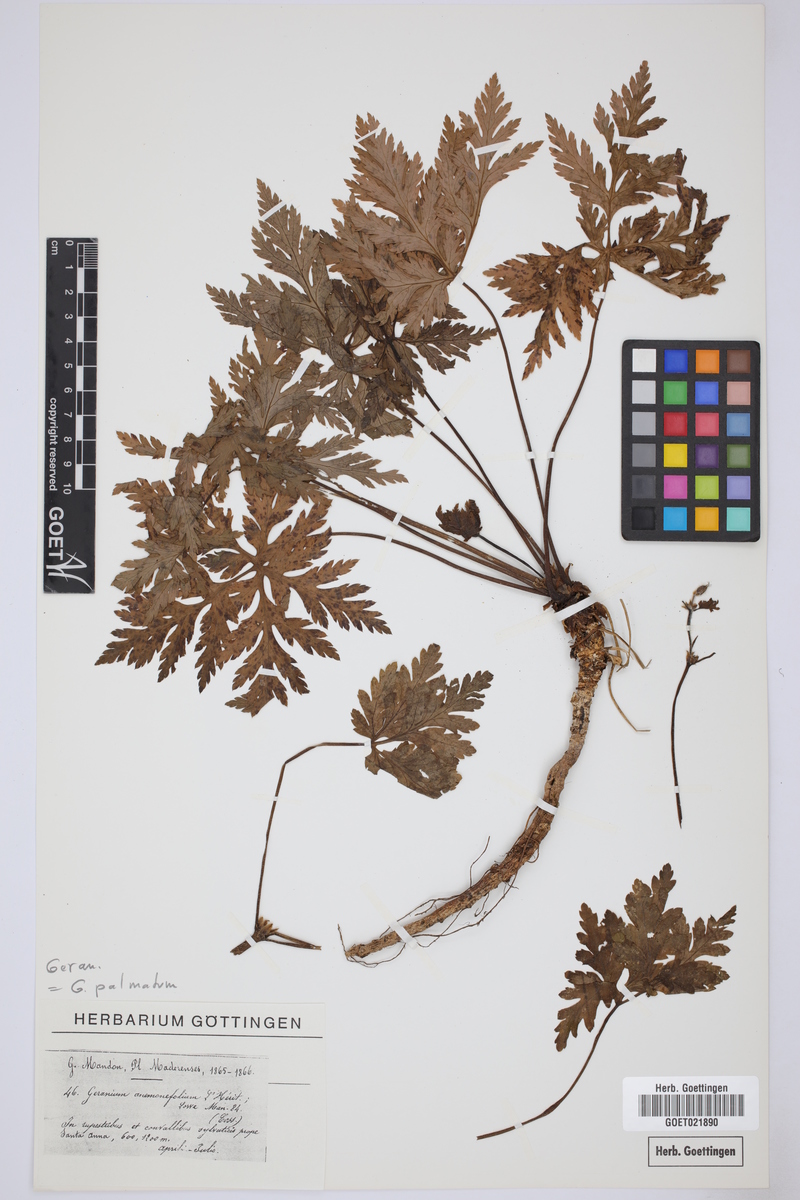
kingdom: Plantae
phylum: Tracheophyta
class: Magnoliopsida
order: Geraniales
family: Geraniaceae
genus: Geranium
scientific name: Geranium palmatum
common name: Canary island geranium
